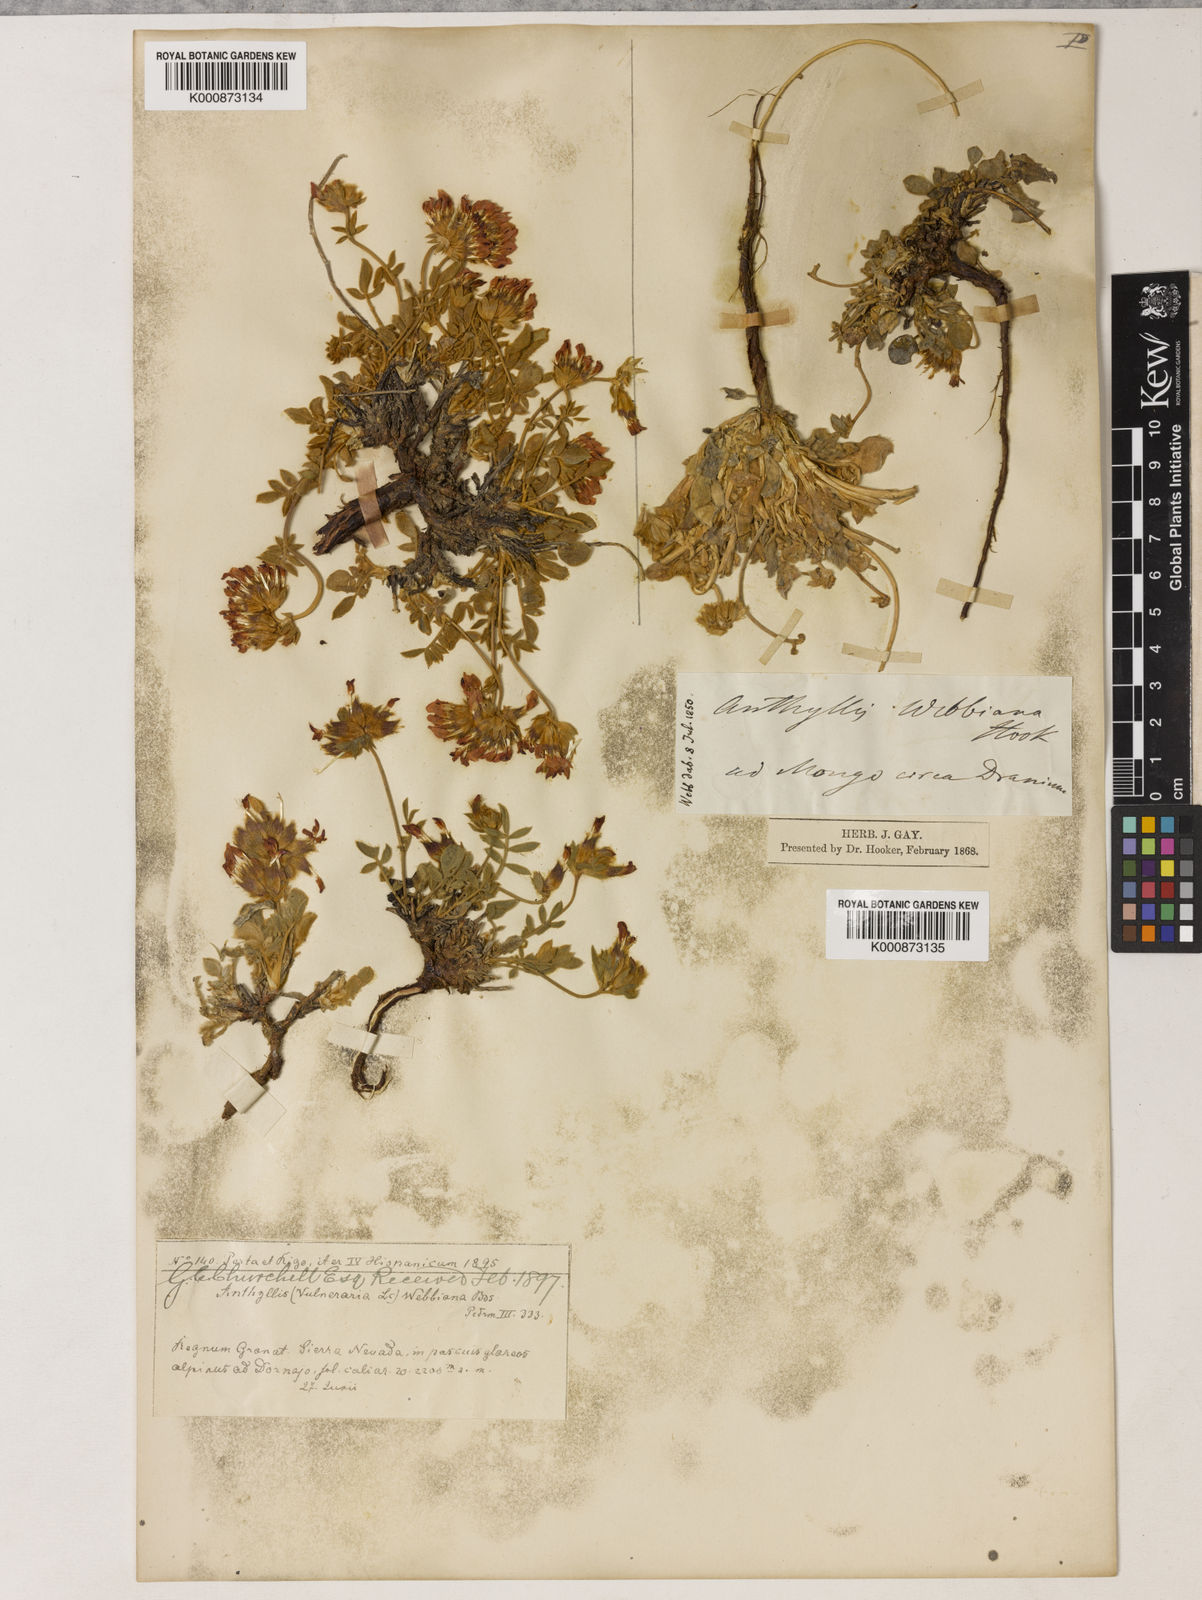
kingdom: Plantae
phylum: Tracheophyta
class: Magnoliopsida
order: Fabales
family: Fabaceae
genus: Anthyllis
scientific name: Anthyllis lemanniana
